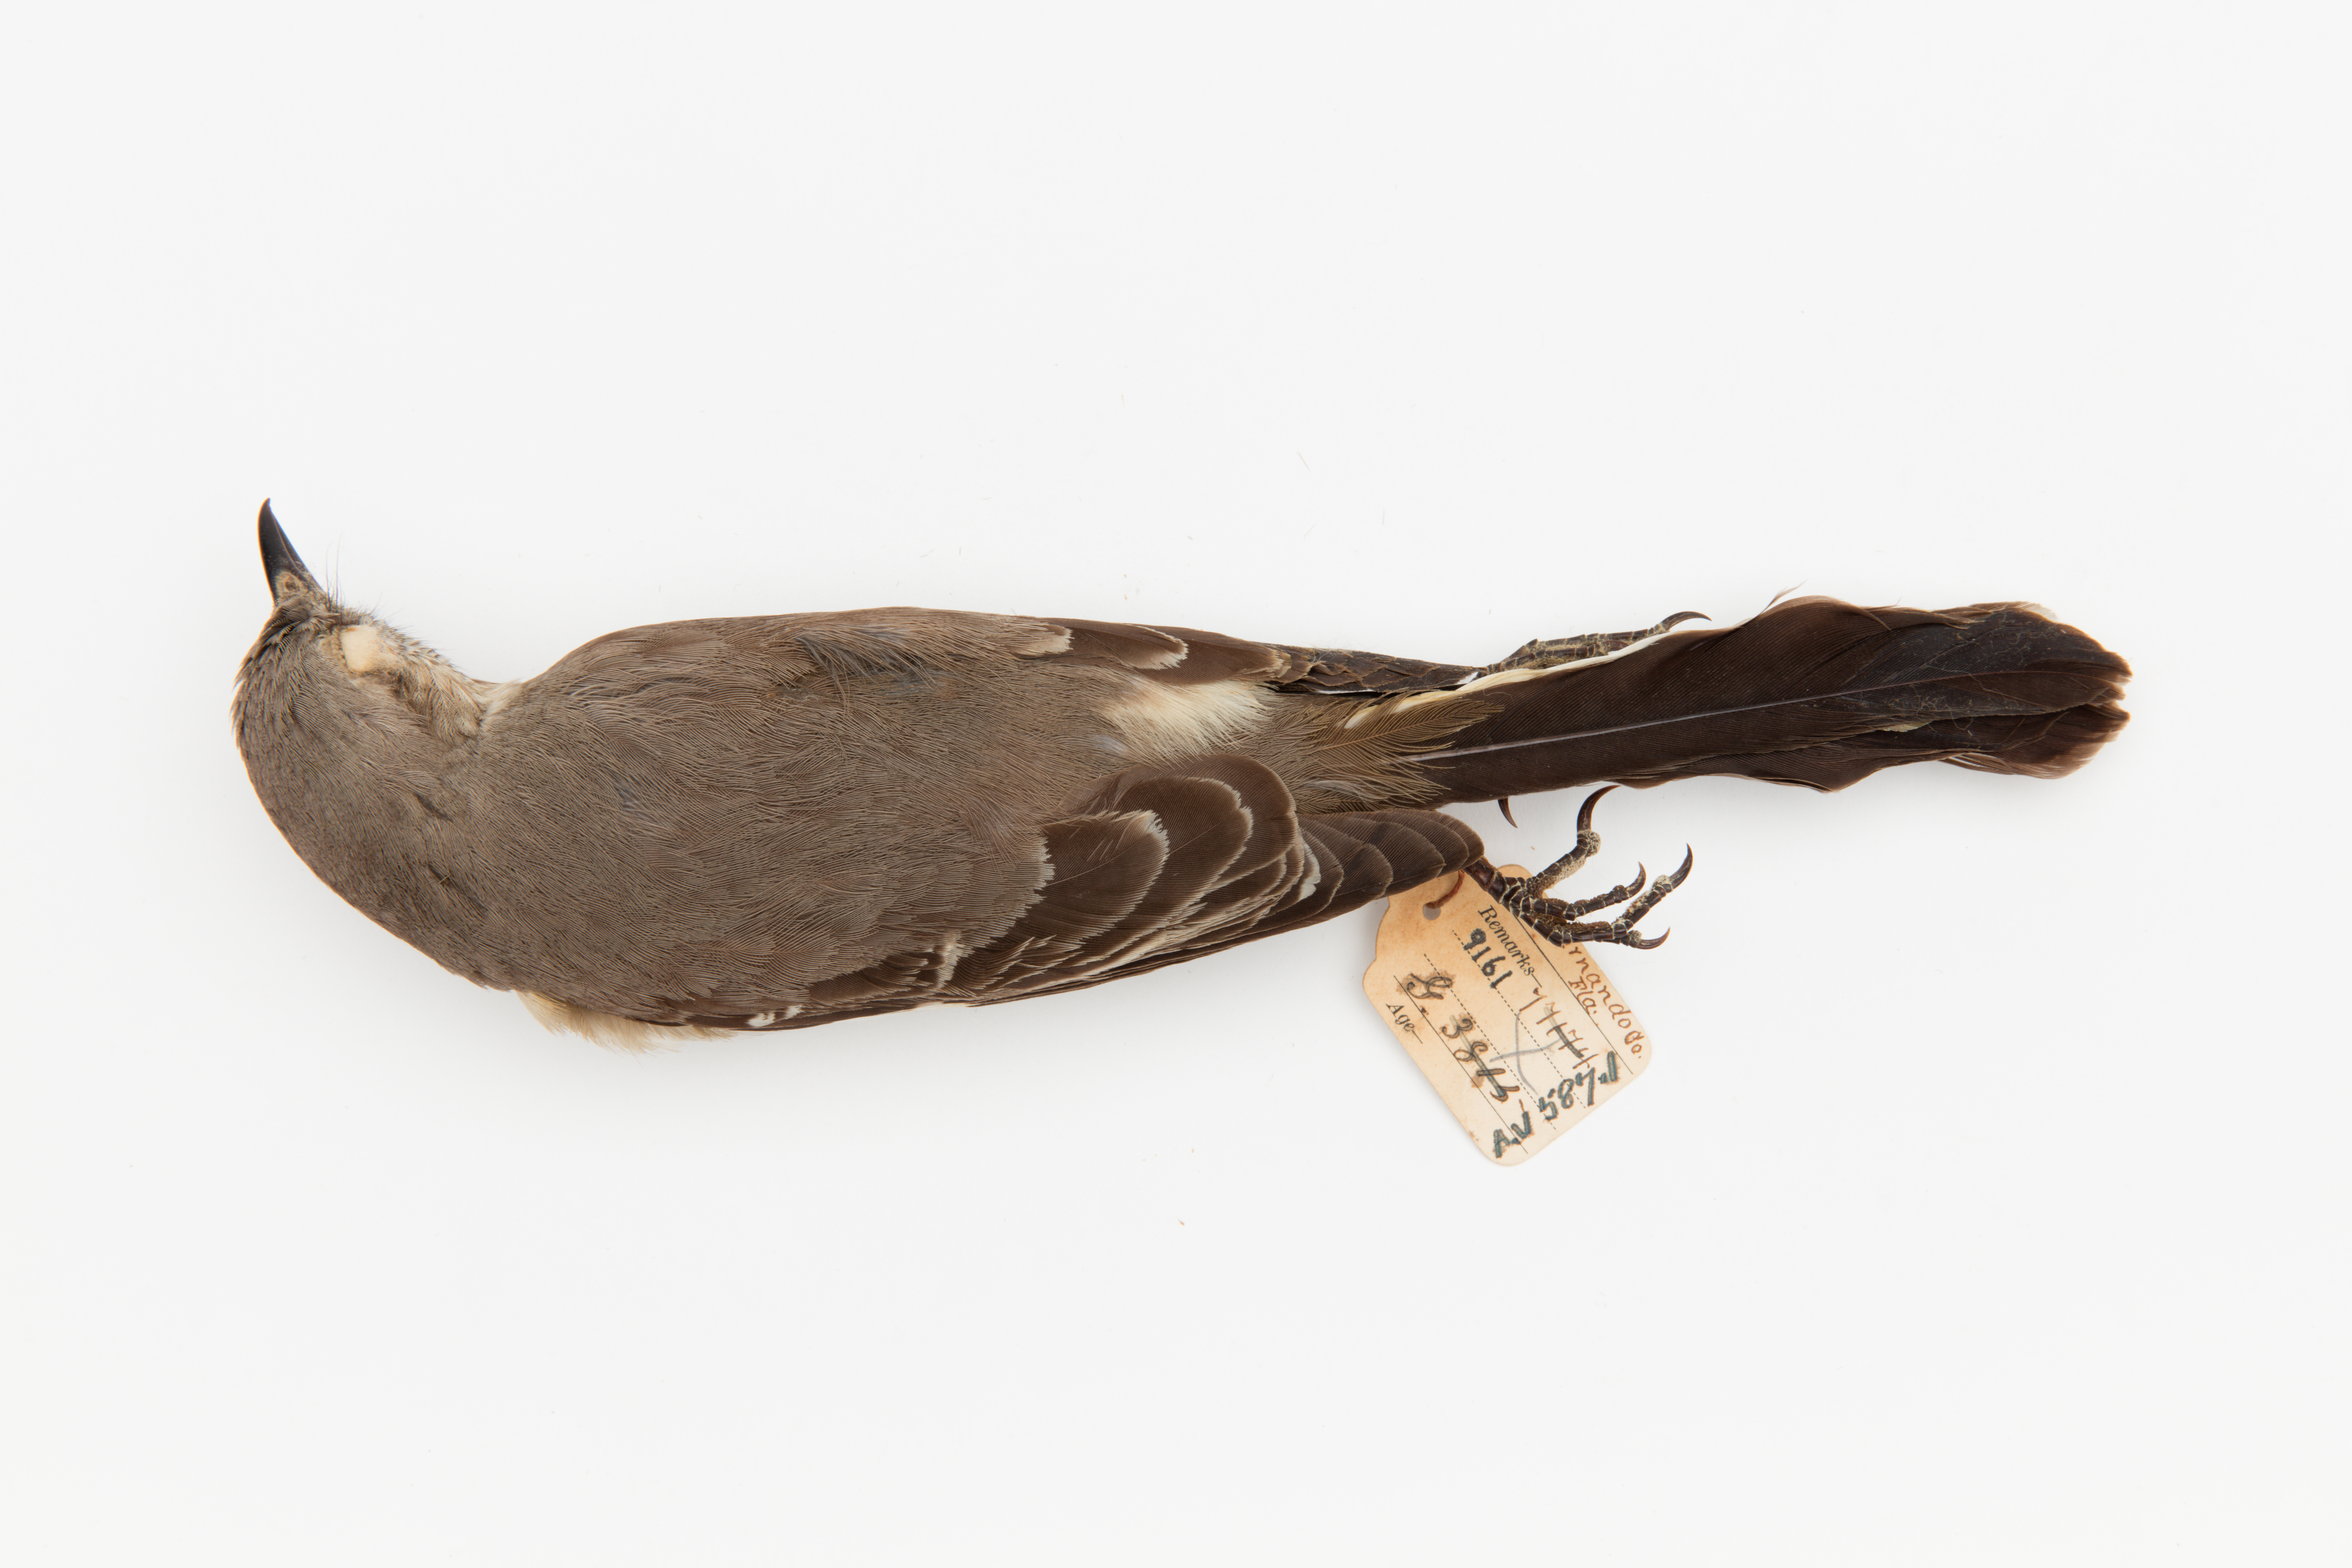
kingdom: Animalia
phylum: Chordata
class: Aves
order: Passeriformes
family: Mimidae
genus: Mimus
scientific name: Mimus polyglottos
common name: Northern mockingbird
